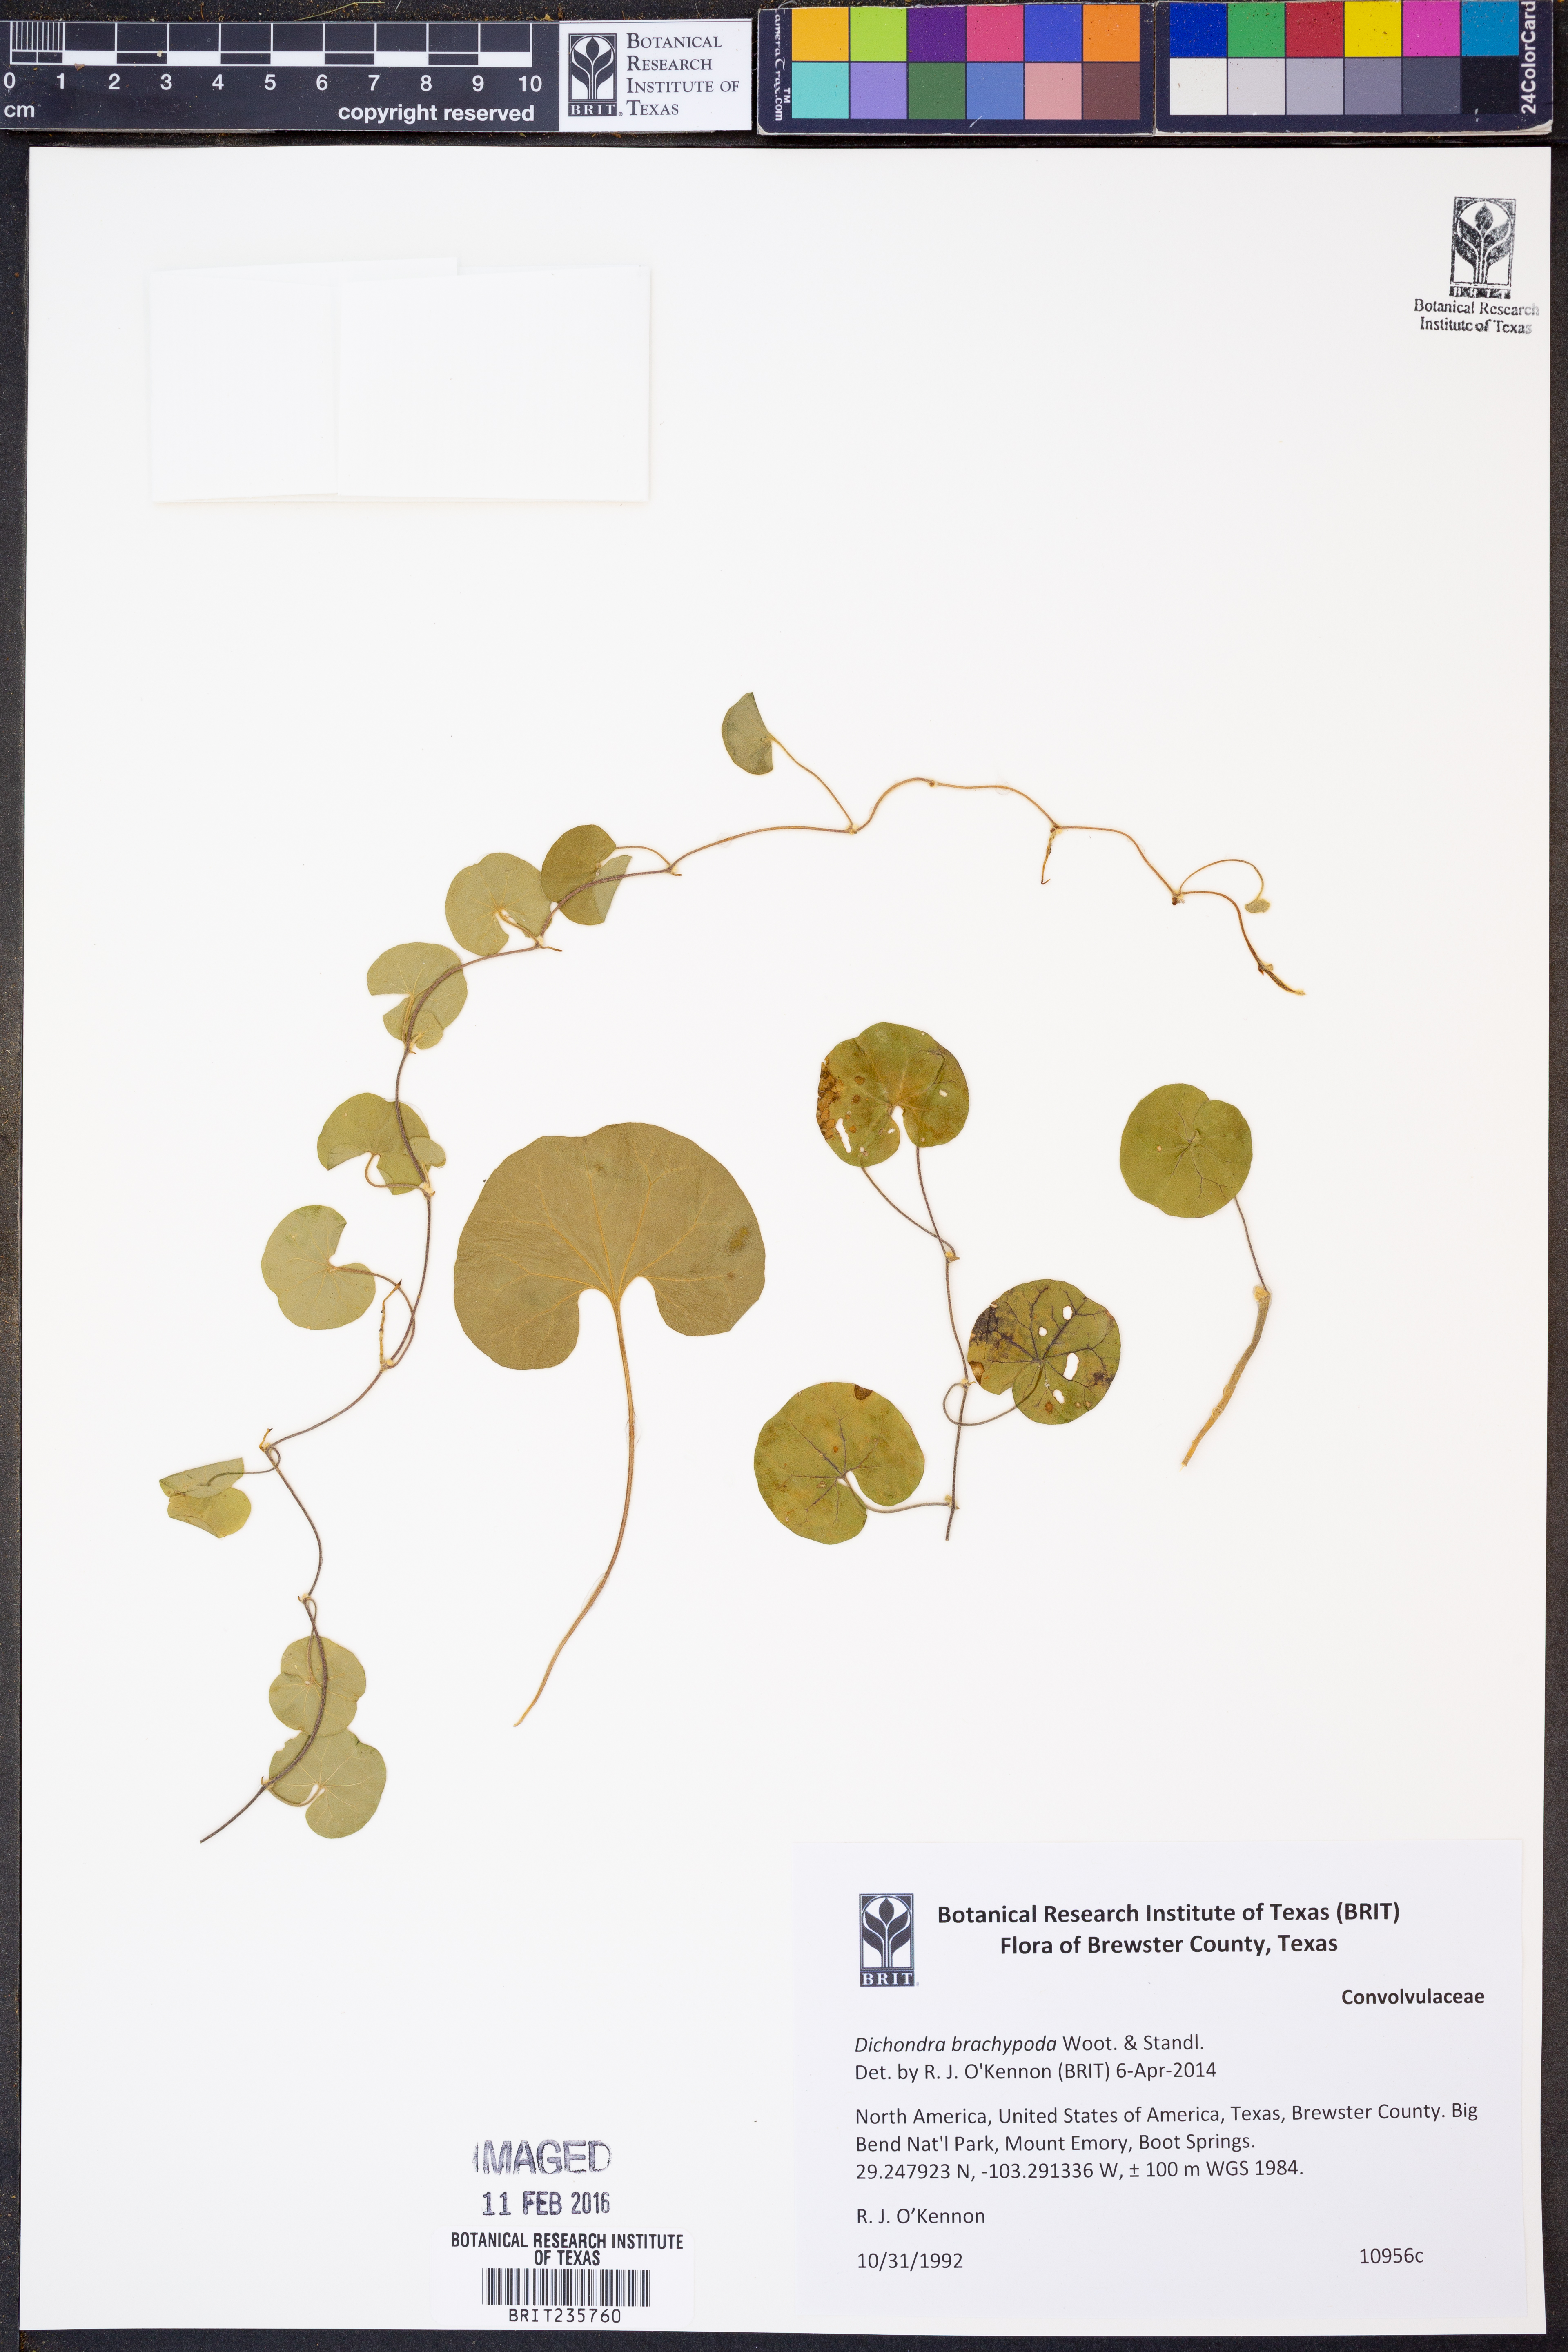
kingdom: Plantae
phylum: Tracheophyta
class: Magnoliopsida
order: Solanales
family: Convolvulaceae
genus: Dichondra
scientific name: Dichondra brachypoda
